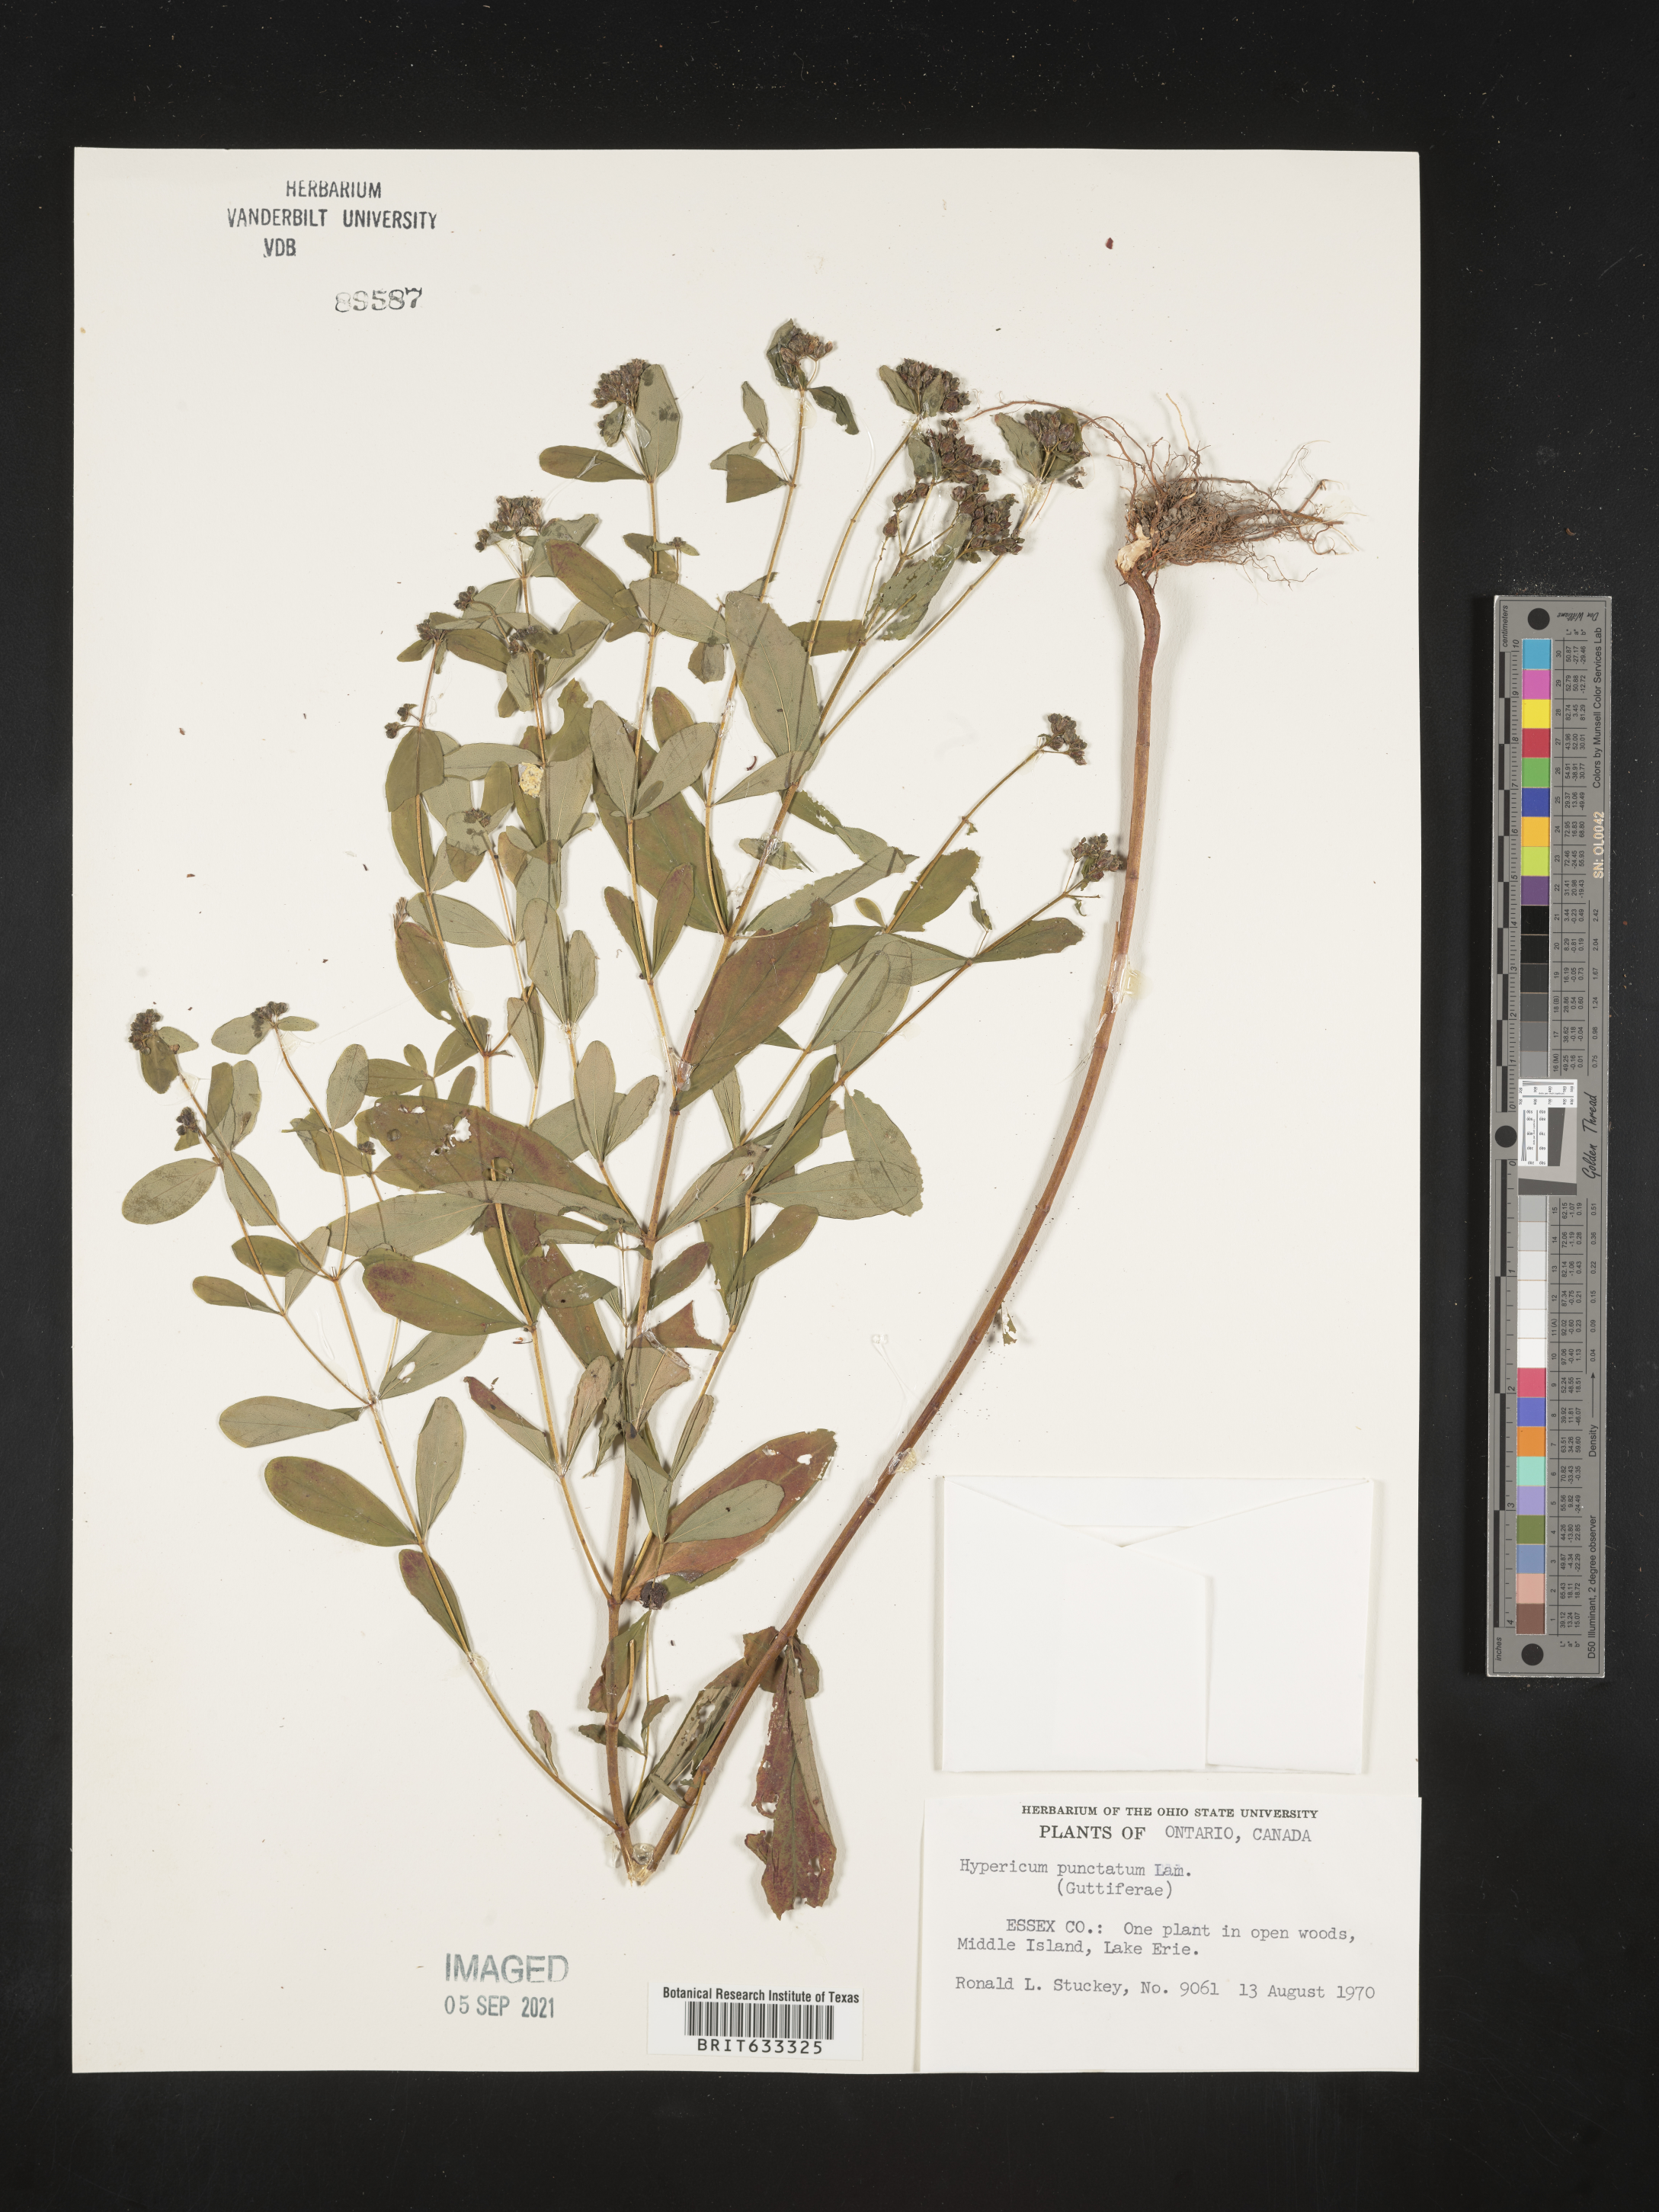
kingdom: Plantae
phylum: Tracheophyta
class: Magnoliopsida
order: Malpighiales
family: Hypericaceae
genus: Hypericum
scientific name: Hypericum
